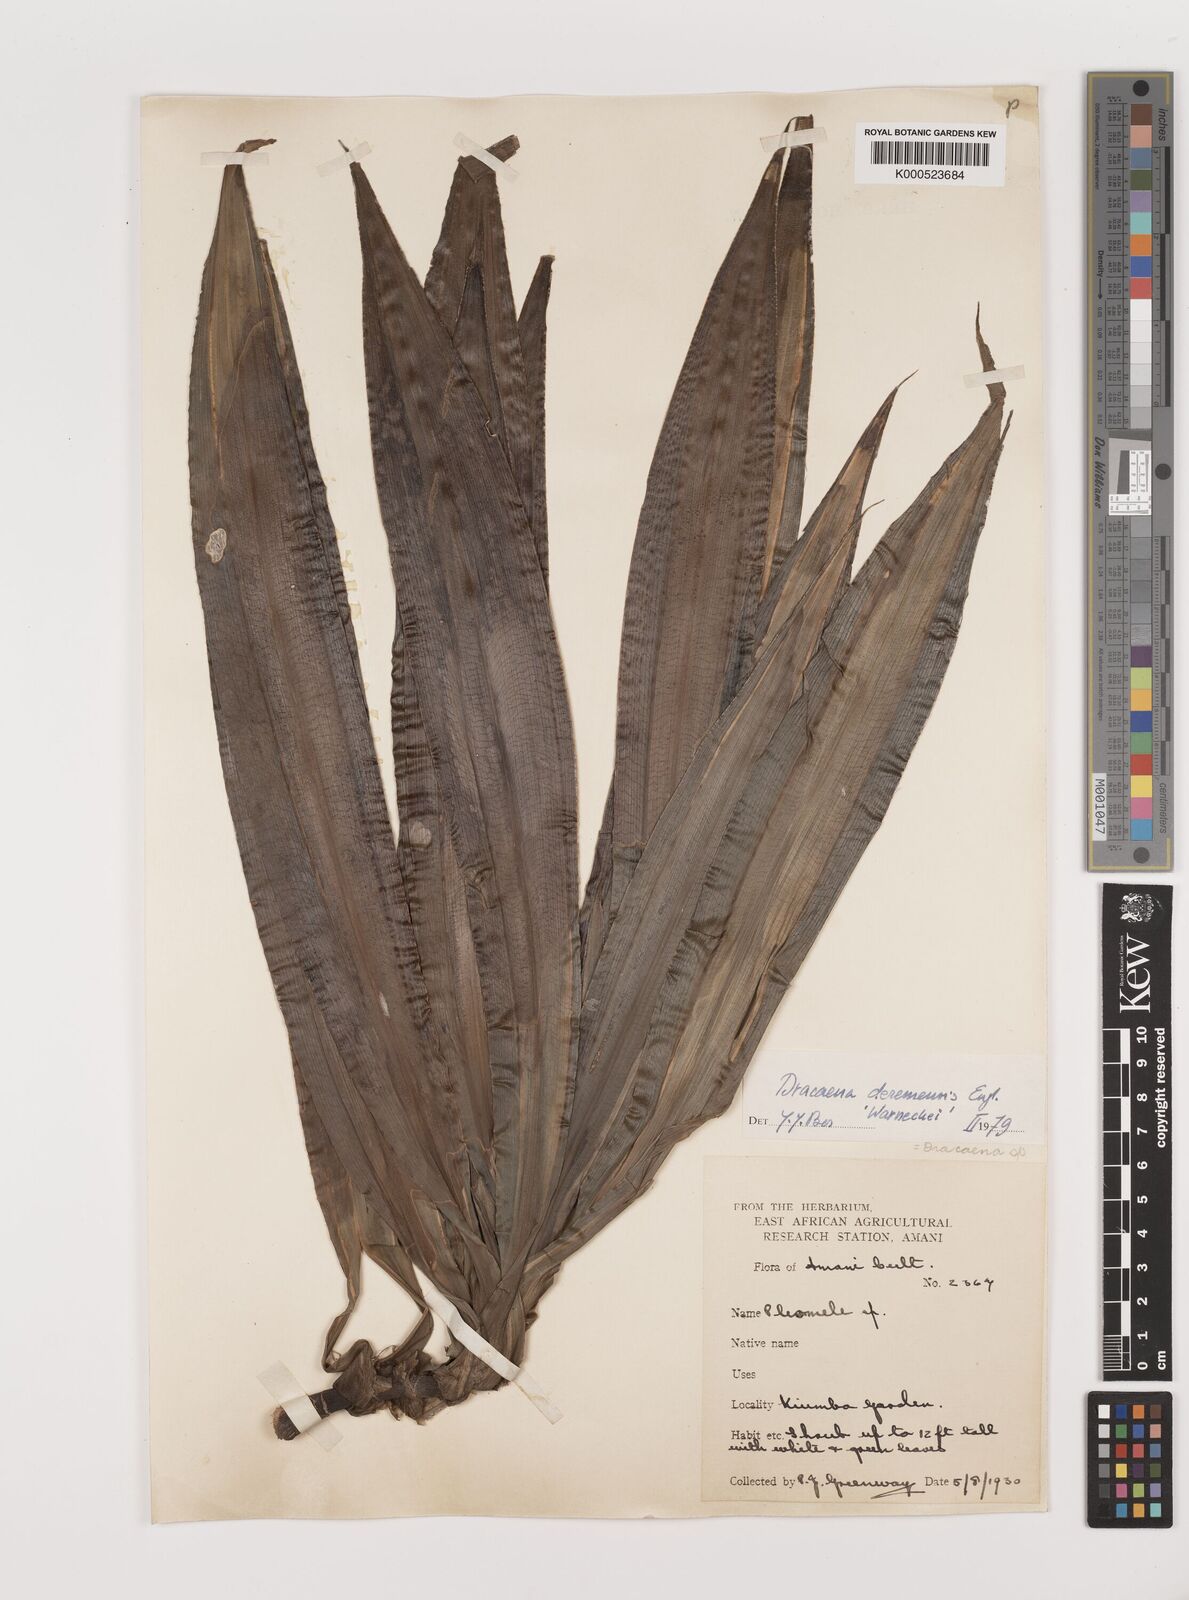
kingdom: Plantae
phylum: Tracheophyta
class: Liliopsida
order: Asparagales
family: Asparagaceae
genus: Dracaena
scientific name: Dracaena fragrans
